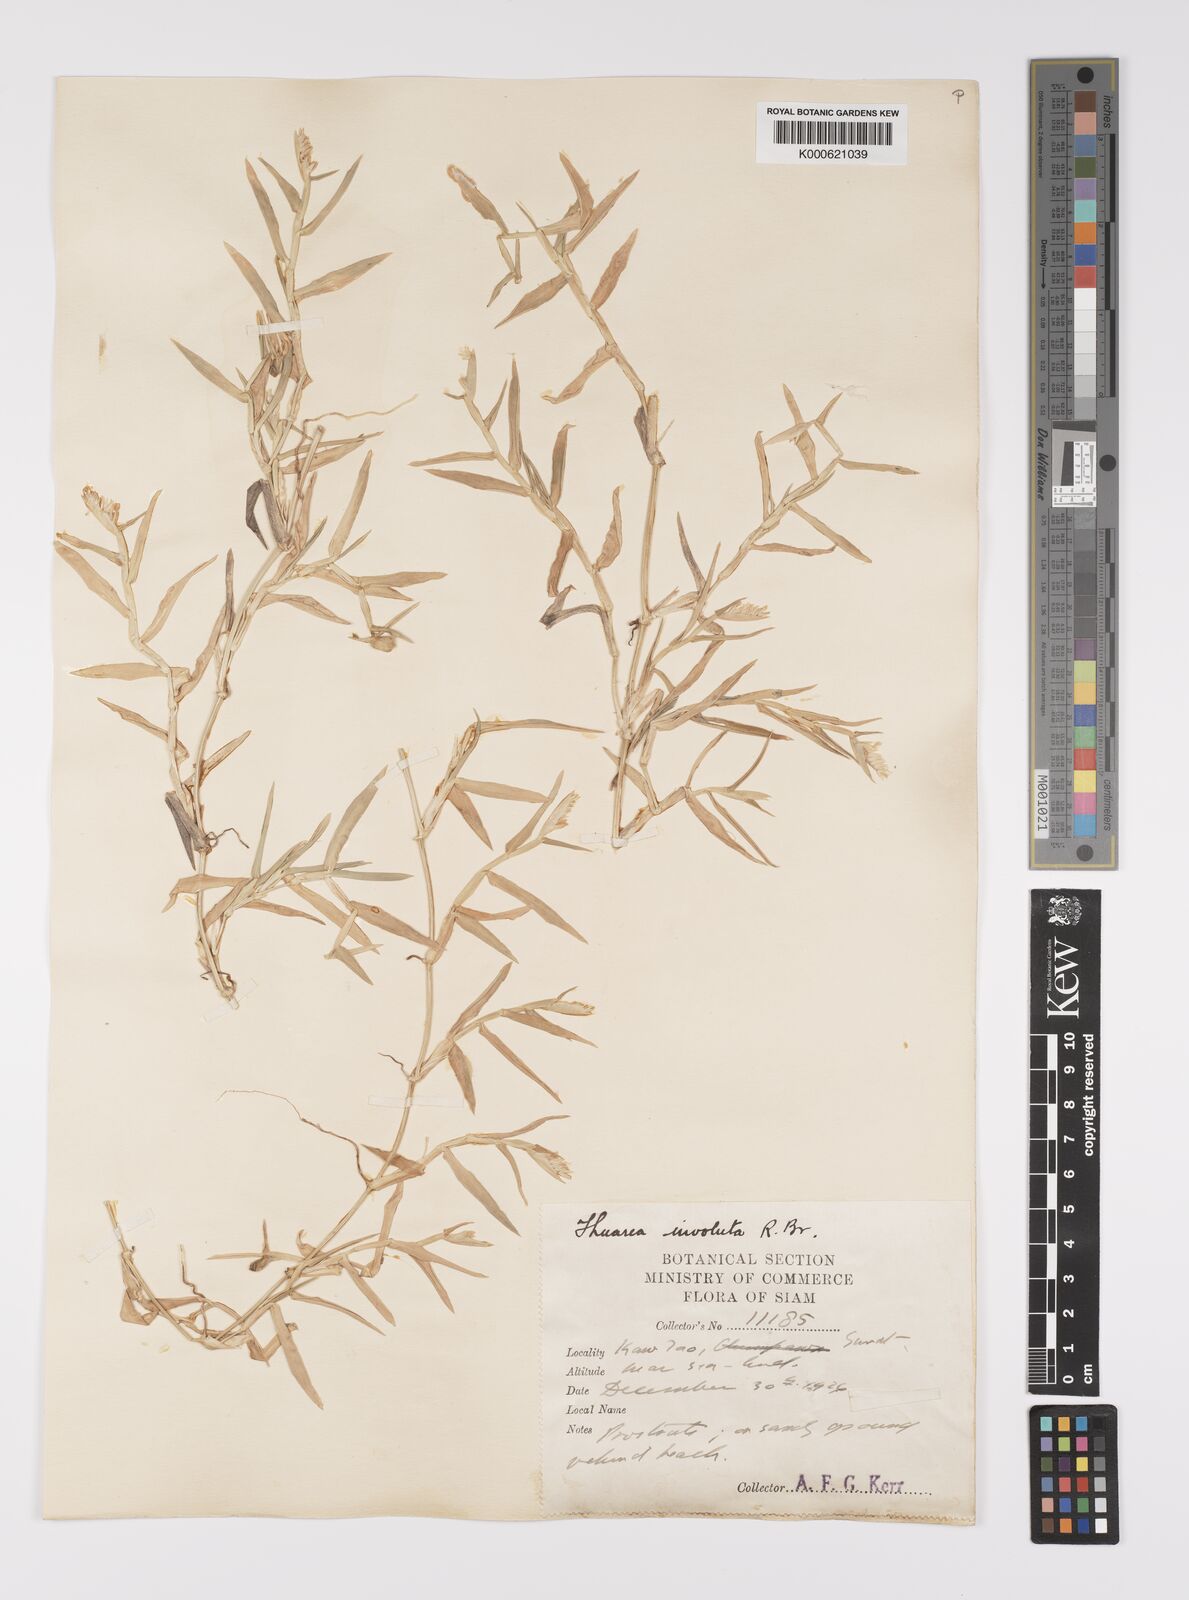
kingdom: Plantae
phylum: Tracheophyta
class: Liliopsida
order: Poales
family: Poaceae
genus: Thuarea
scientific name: Thuarea involuta
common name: Tropical beach grass
